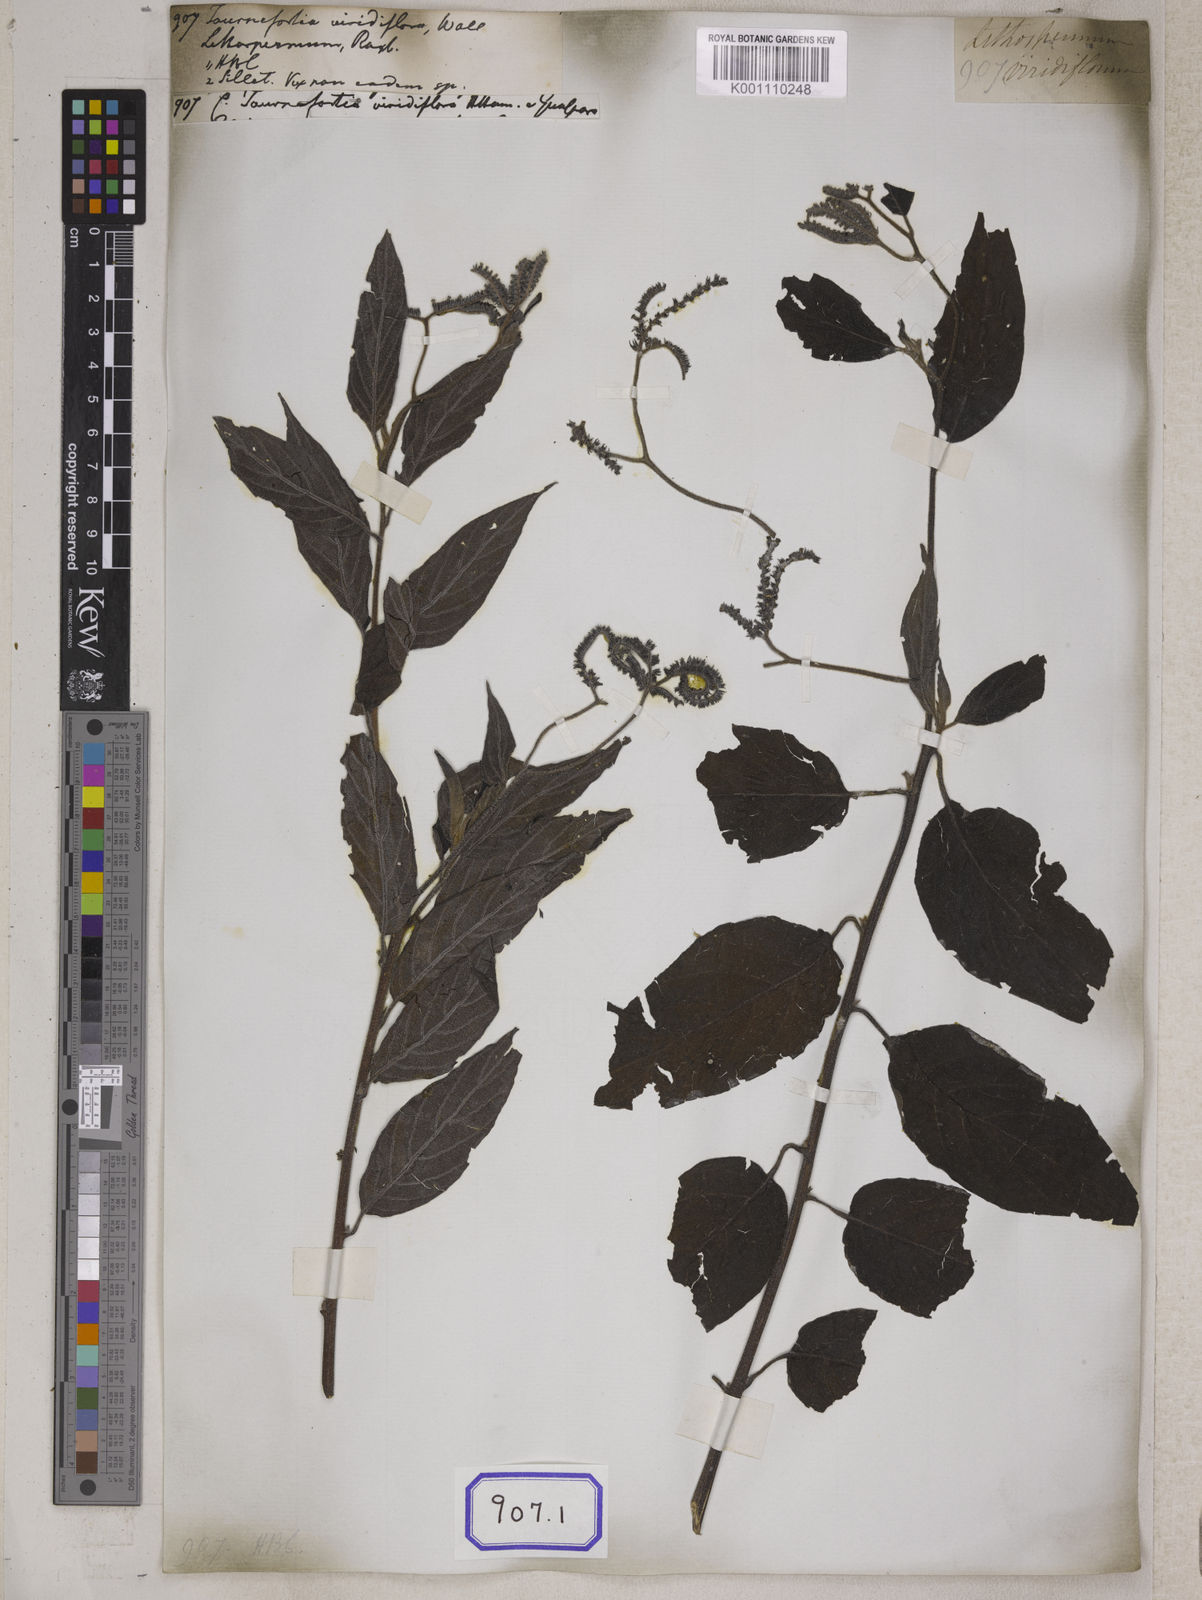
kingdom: Plantae
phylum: Tracheophyta
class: Magnoliopsida
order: Boraginales
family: Heliotropiaceae
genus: Tournefortia
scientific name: Tournefortia montana
